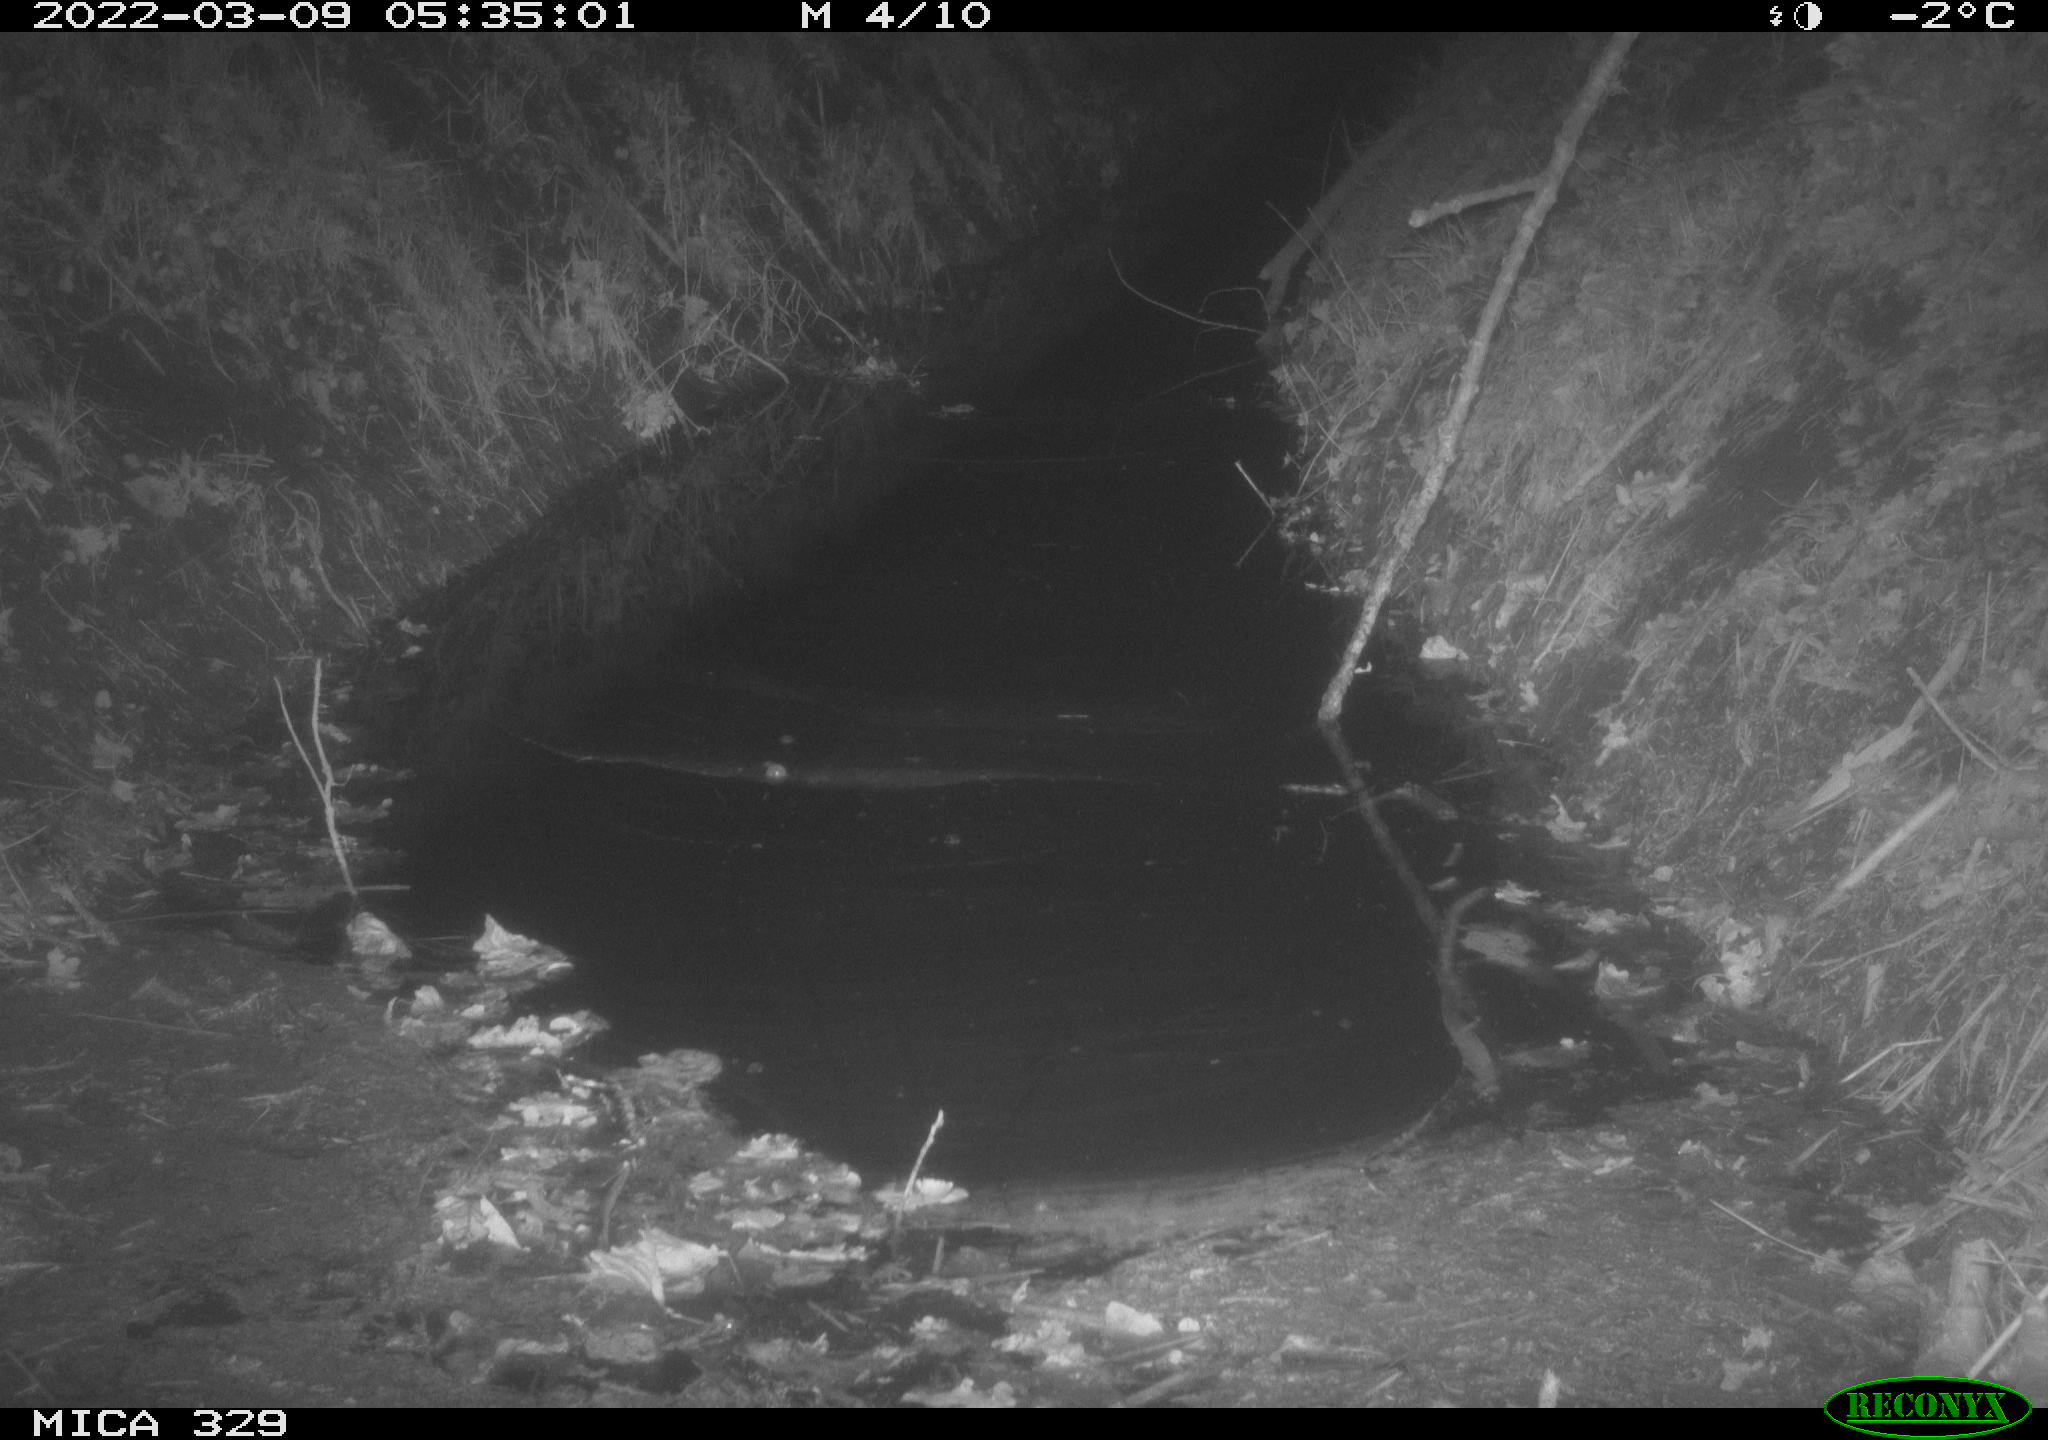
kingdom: Animalia
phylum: Chordata
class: Mammalia
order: Rodentia
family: Muridae
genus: Rattus
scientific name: Rattus norvegicus
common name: Brown rat
